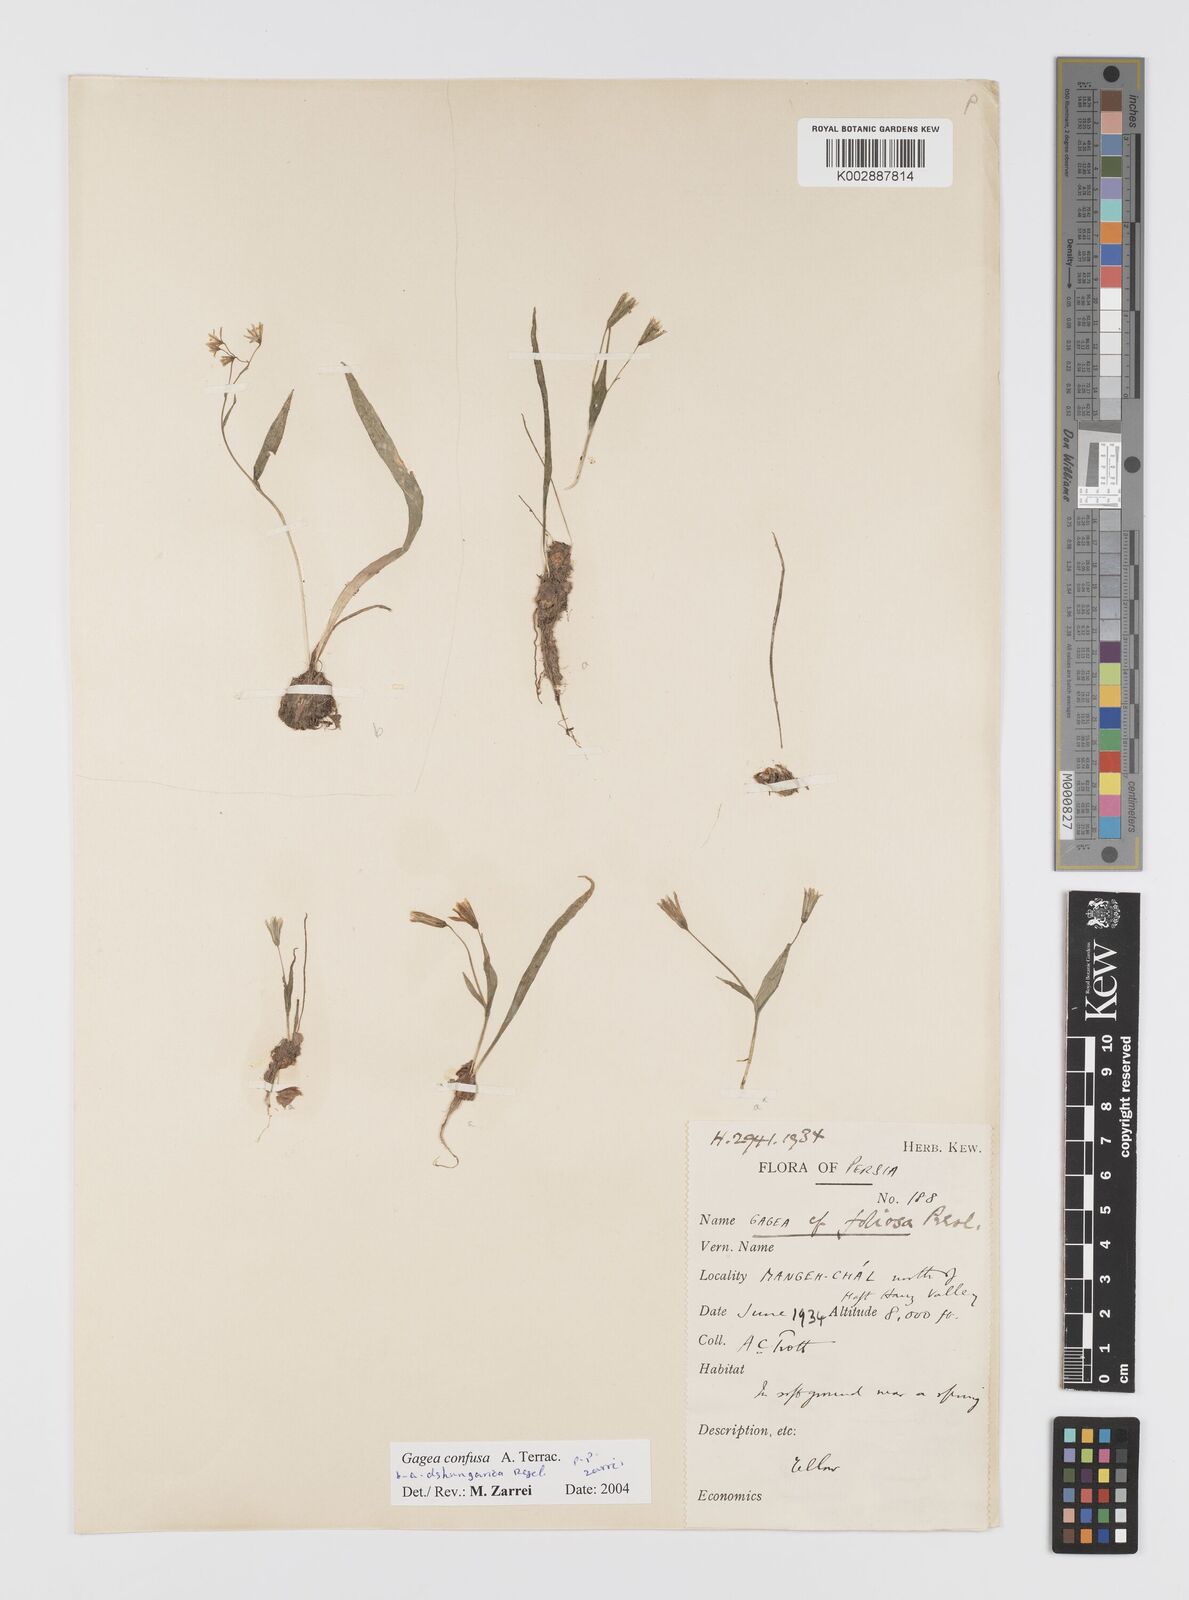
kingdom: Plantae
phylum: Tracheophyta
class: Liliopsida
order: Liliales
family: Liliaceae
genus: Gagea
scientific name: Gagea confusa
